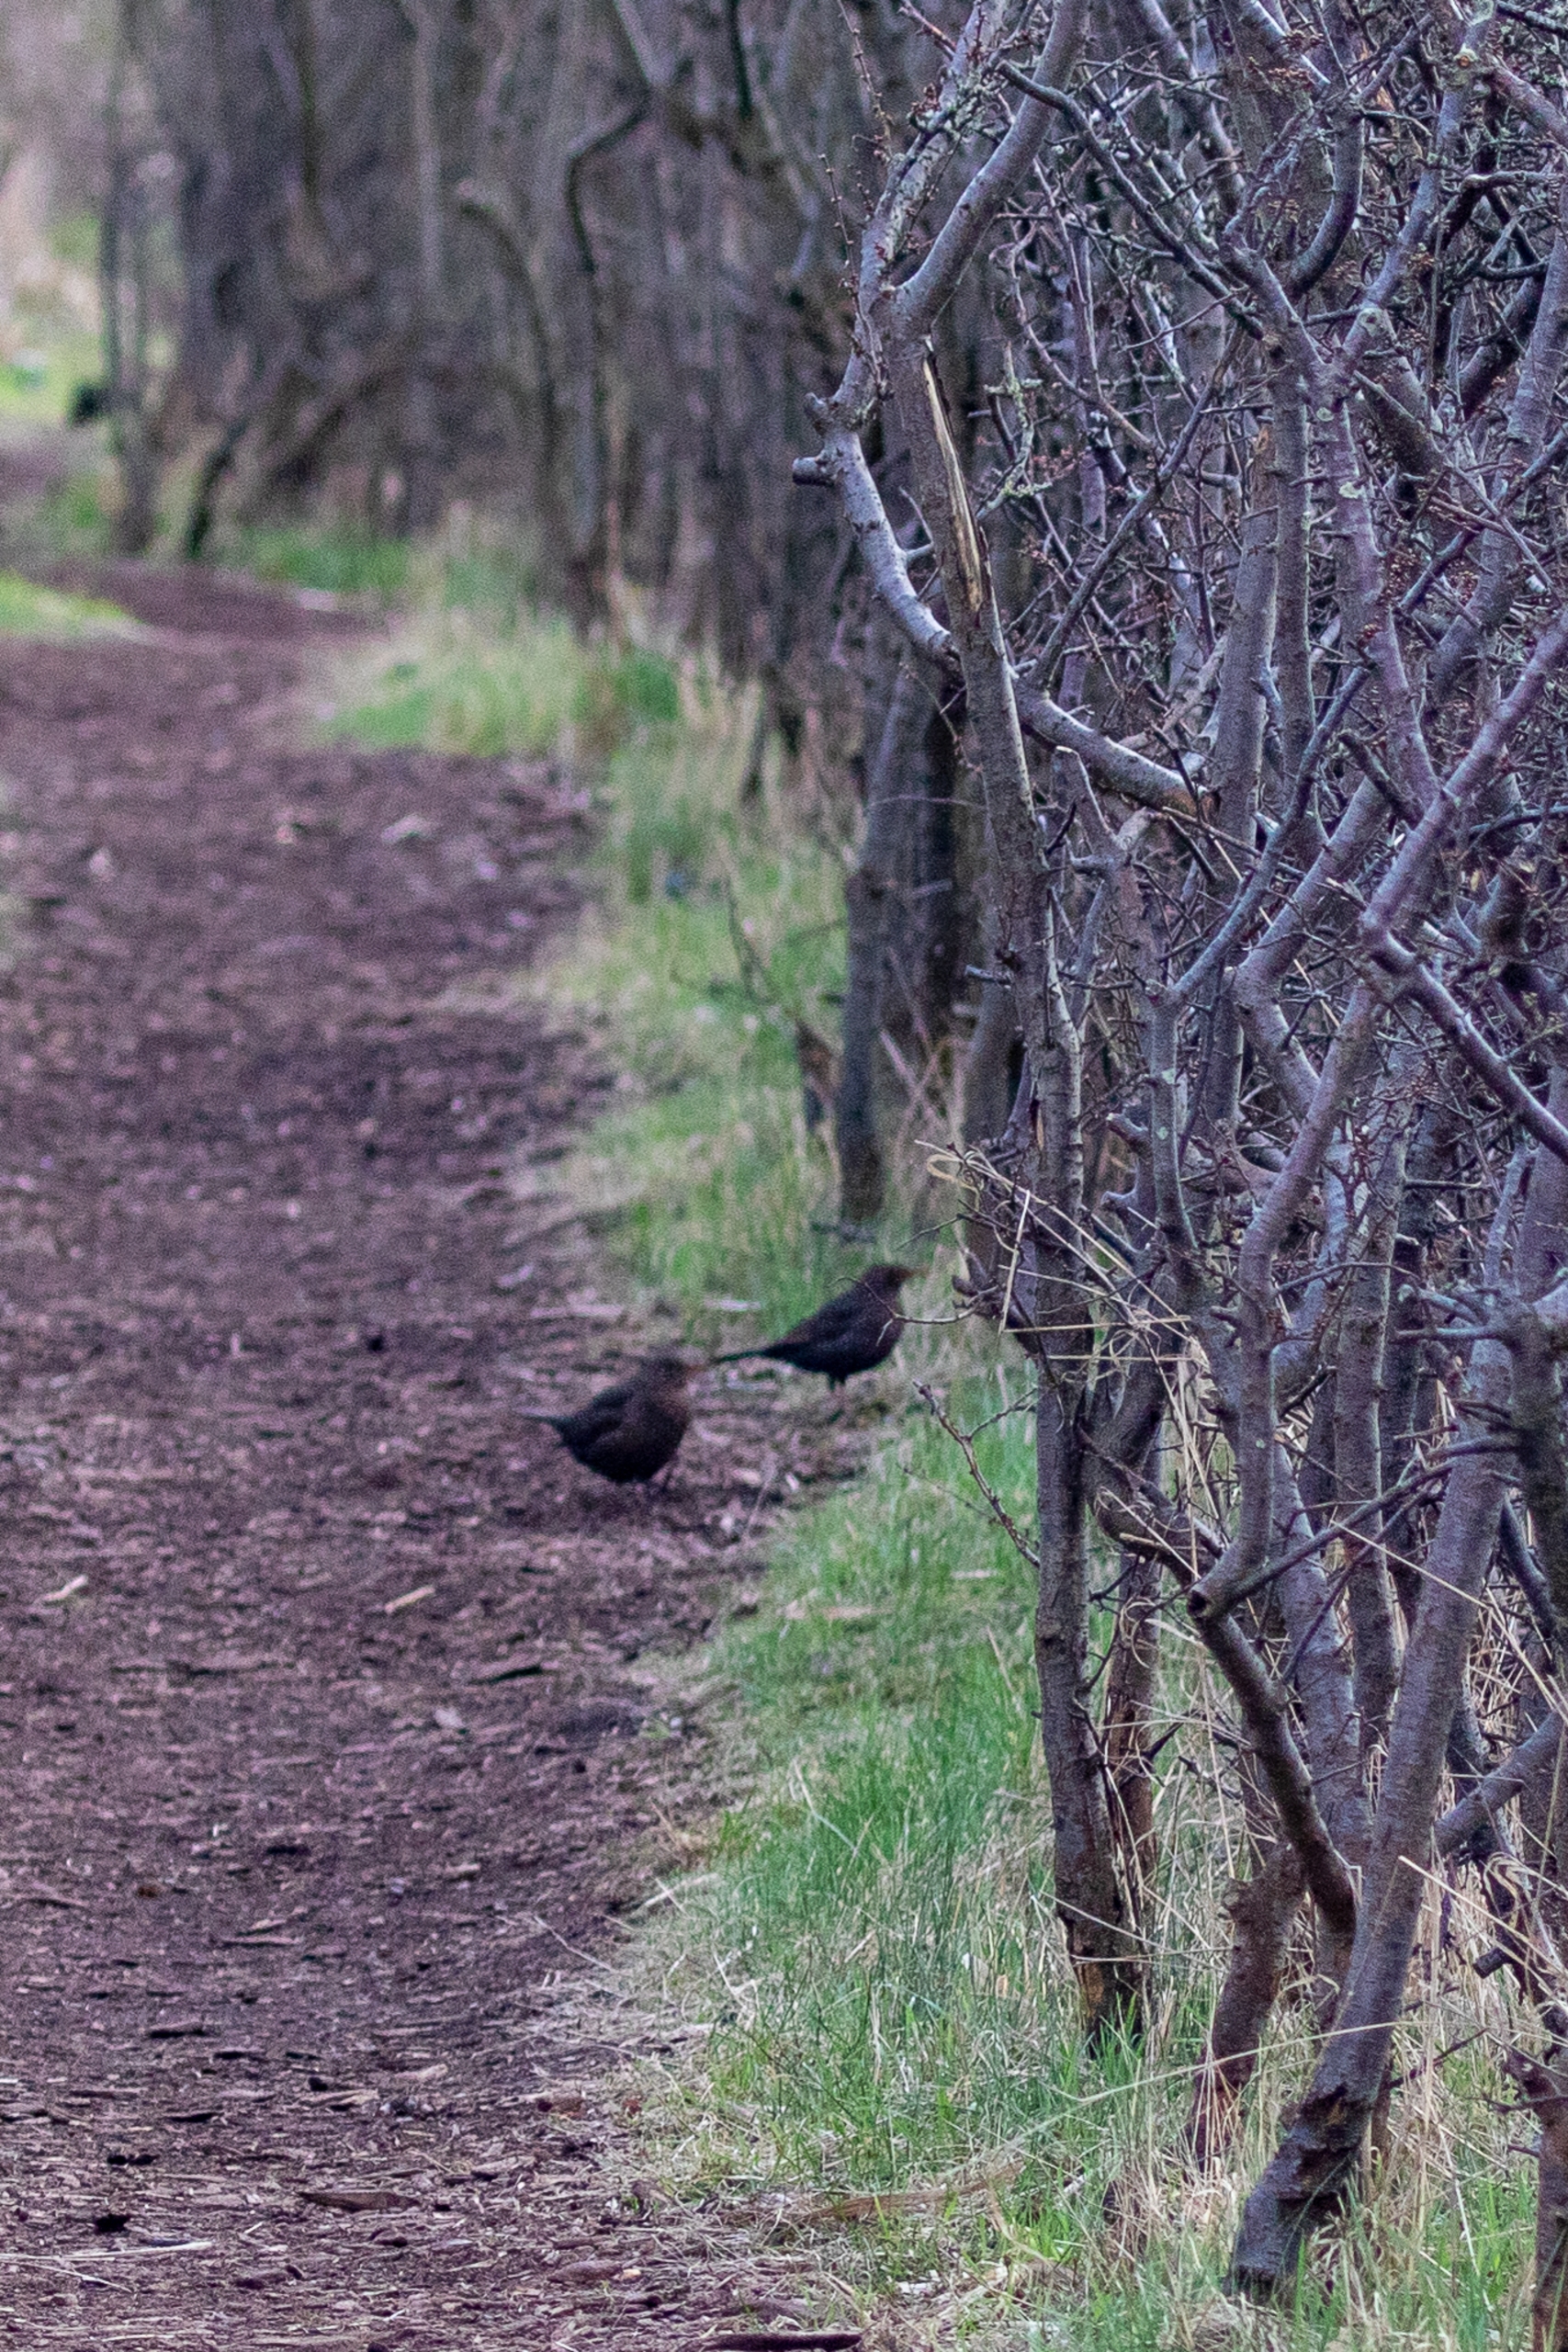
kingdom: Animalia
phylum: Chordata
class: Aves
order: Passeriformes
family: Turdidae
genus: Turdus
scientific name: Turdus merula
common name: Solsort
